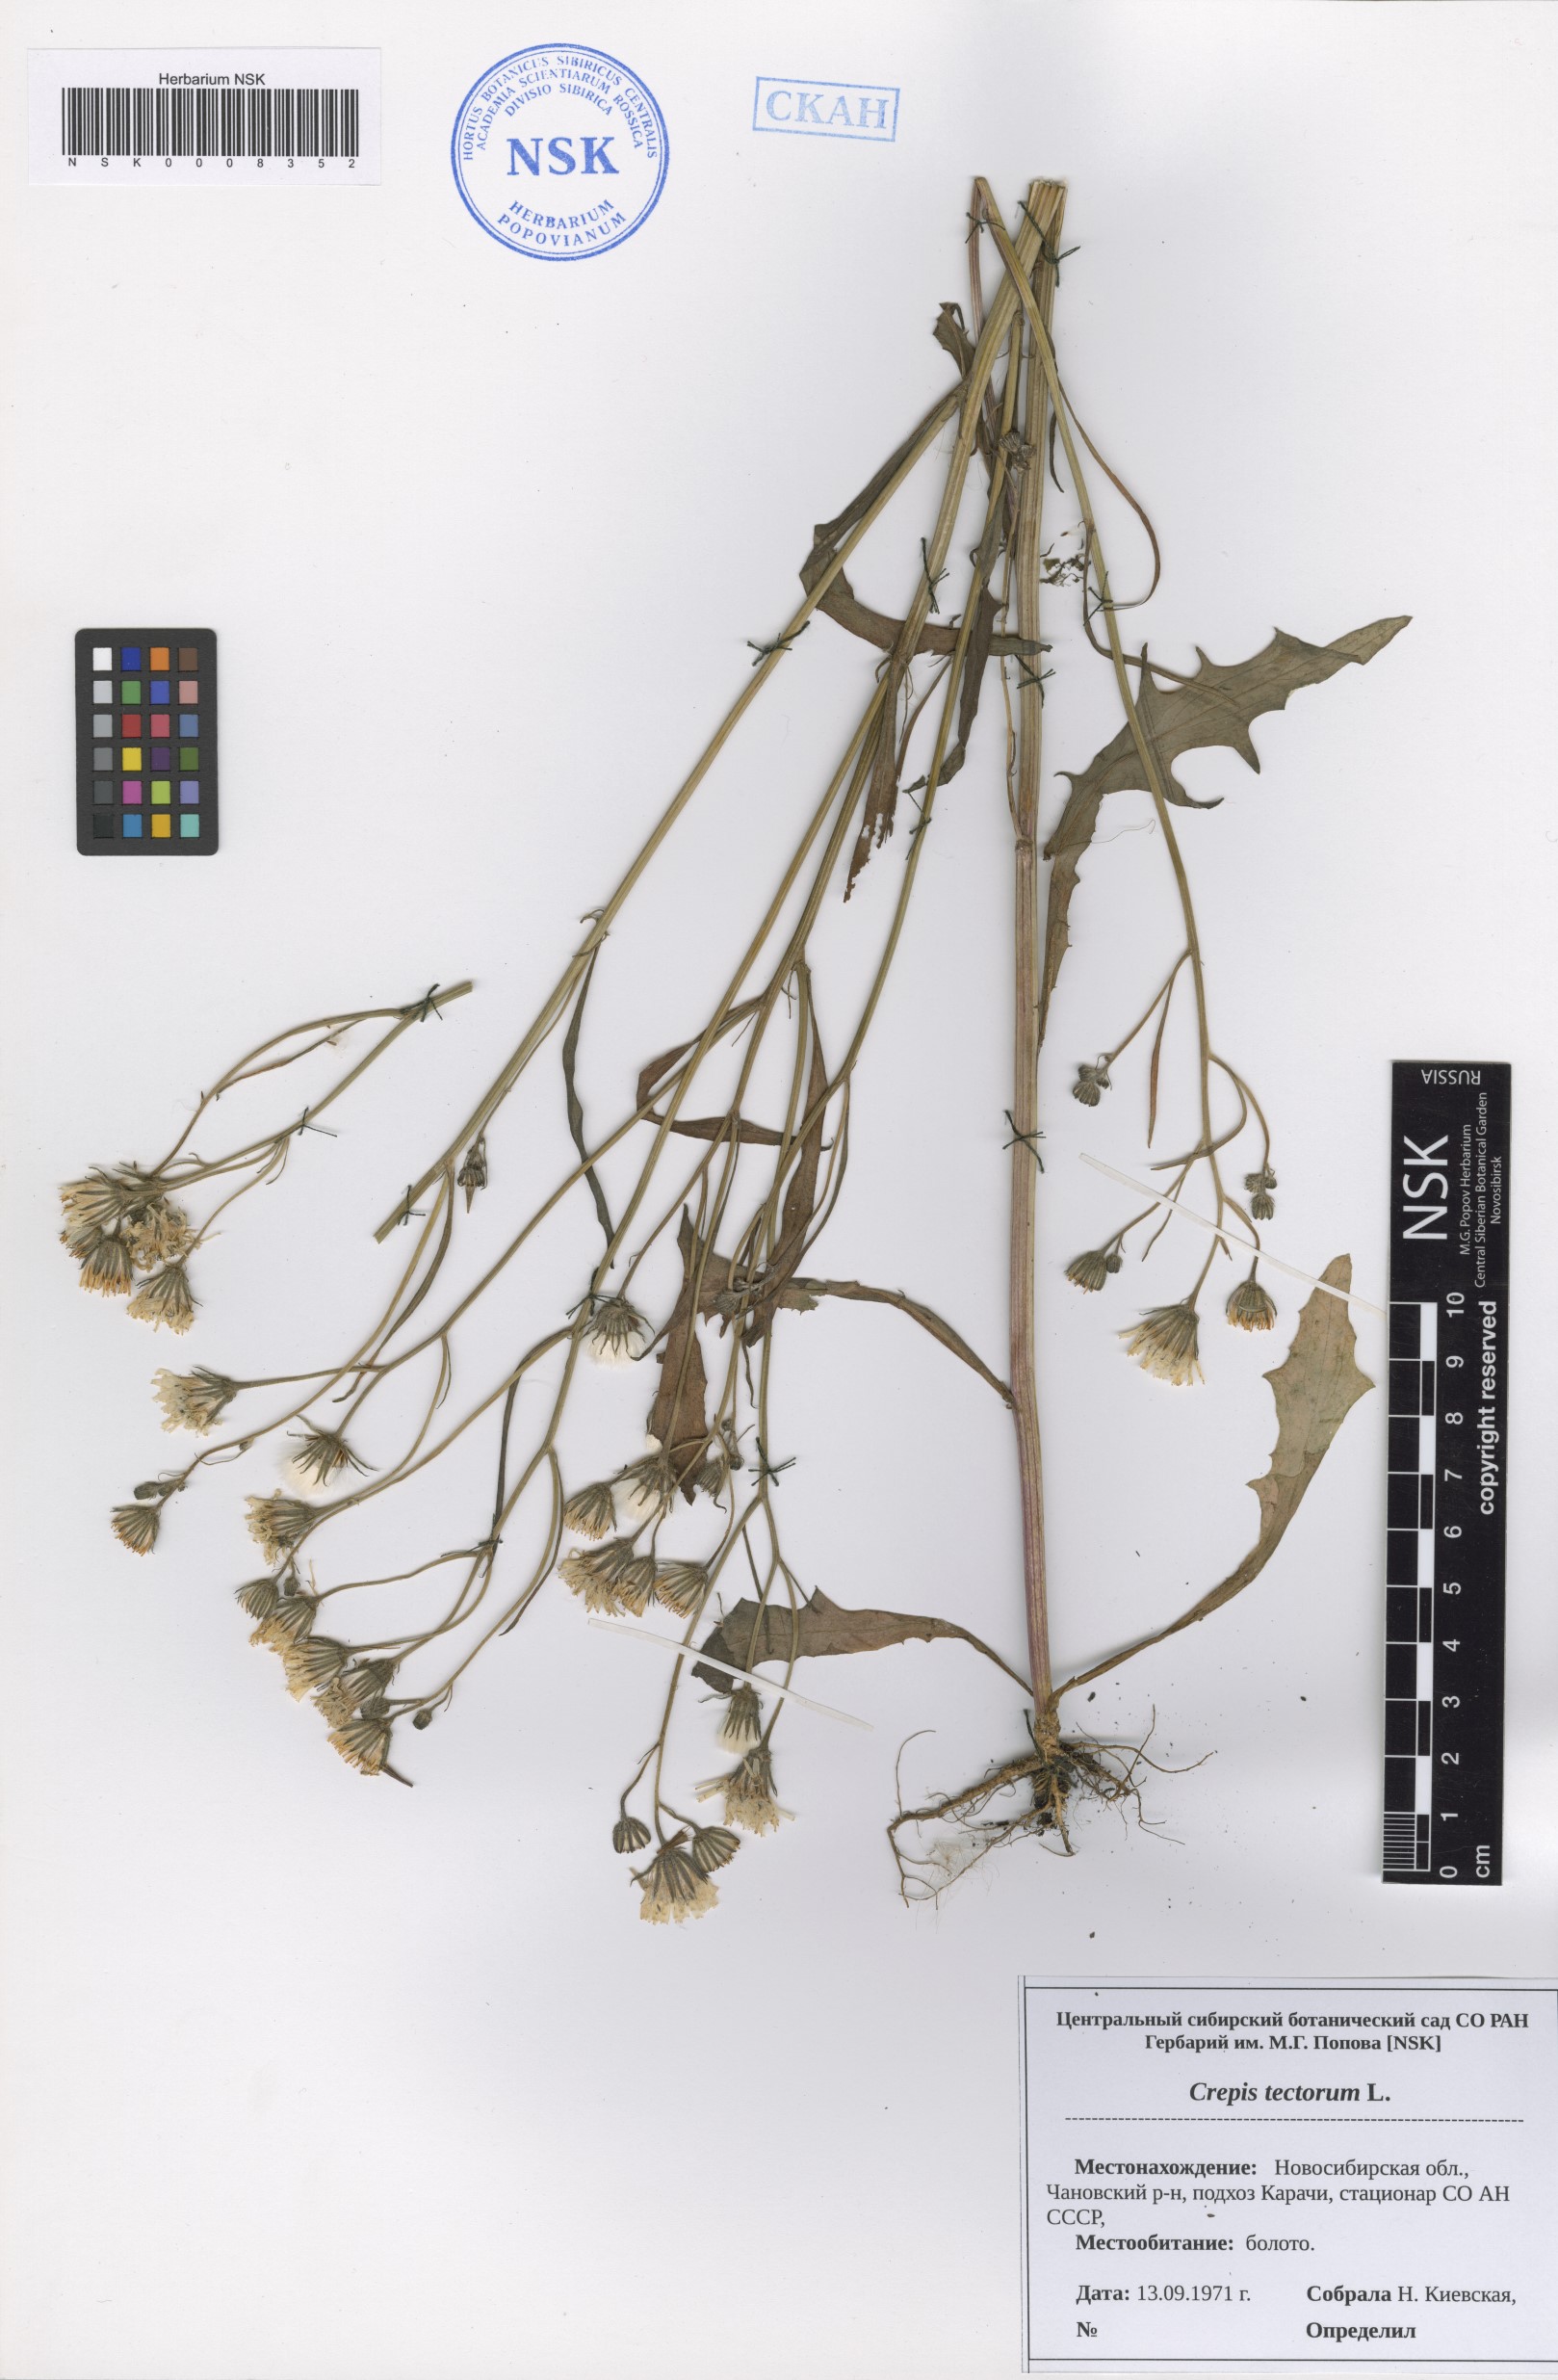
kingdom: Plantae
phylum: Tracheophyta
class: Magnoliopsida
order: Asterales
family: Asteraceae
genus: Crepis
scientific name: Crepis tectorum
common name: Narrow-leaved hawk's-beard
